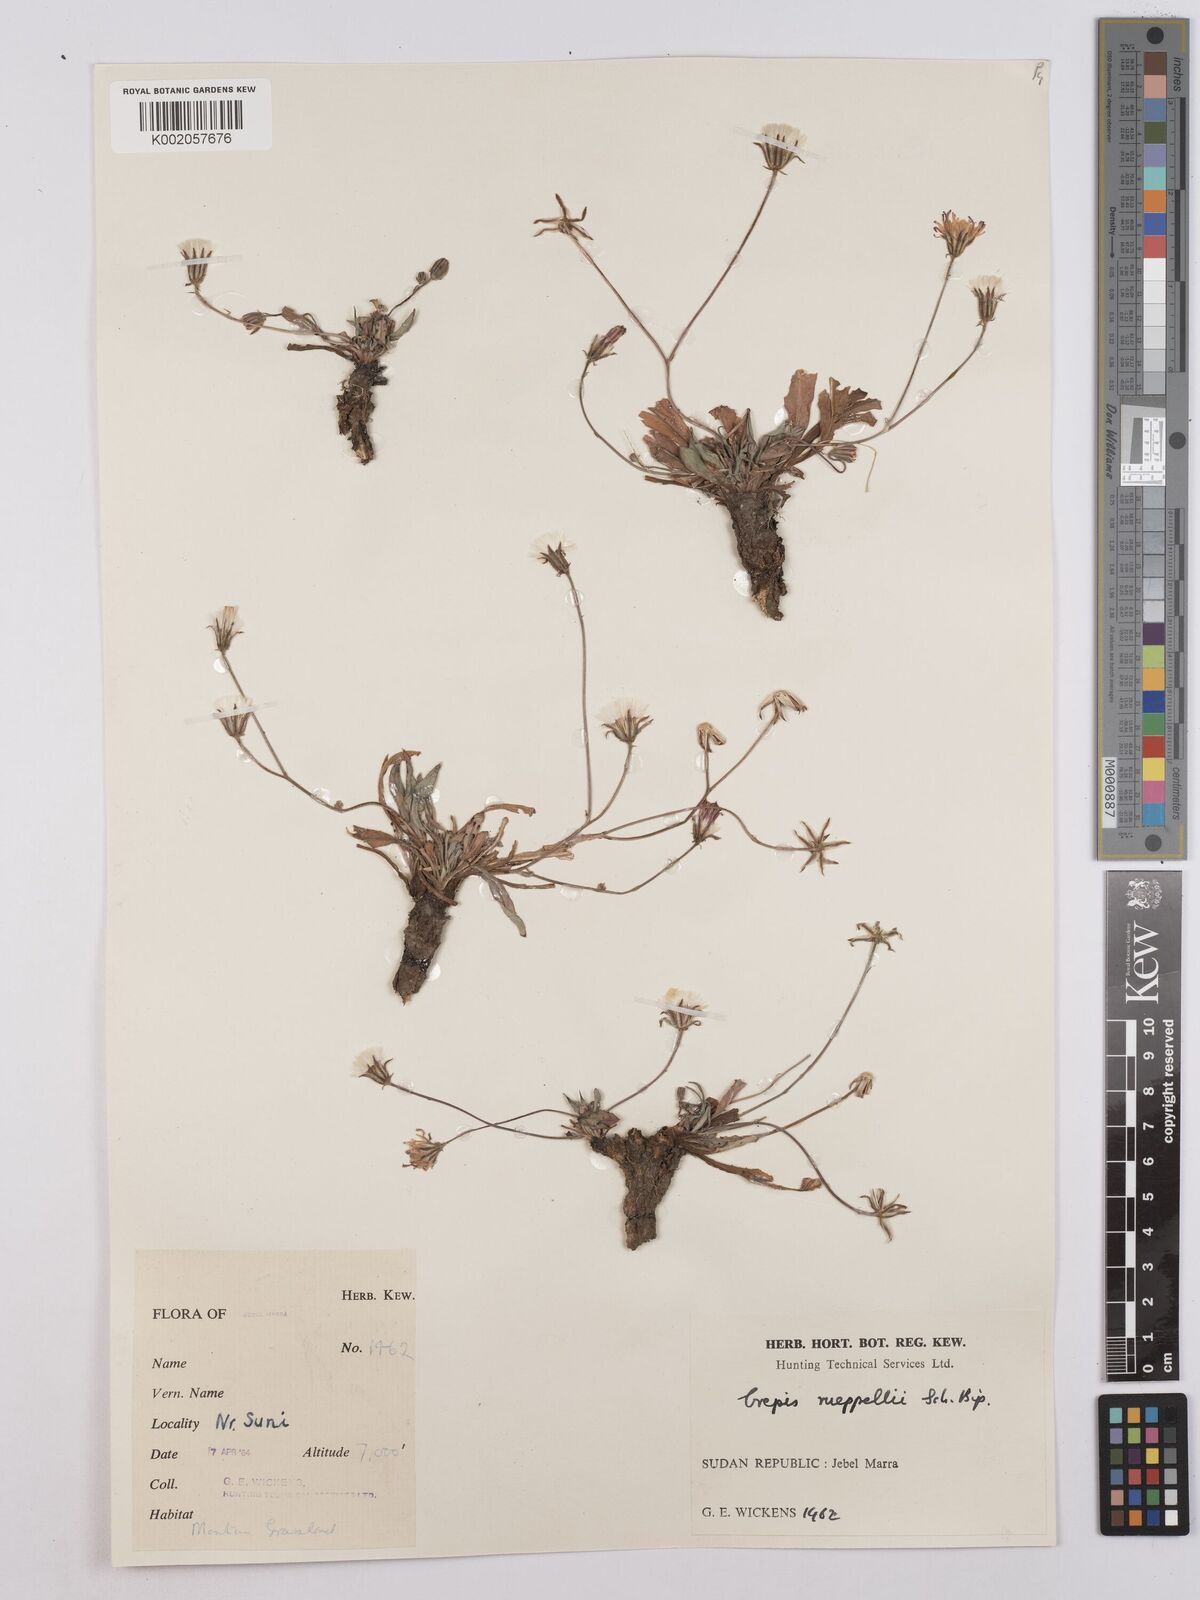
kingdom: Plantae
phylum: Tracheophyta
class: Magnoliopsida
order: Asterales
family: Asteraceae
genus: Crepis
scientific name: Crepis rueppellii
